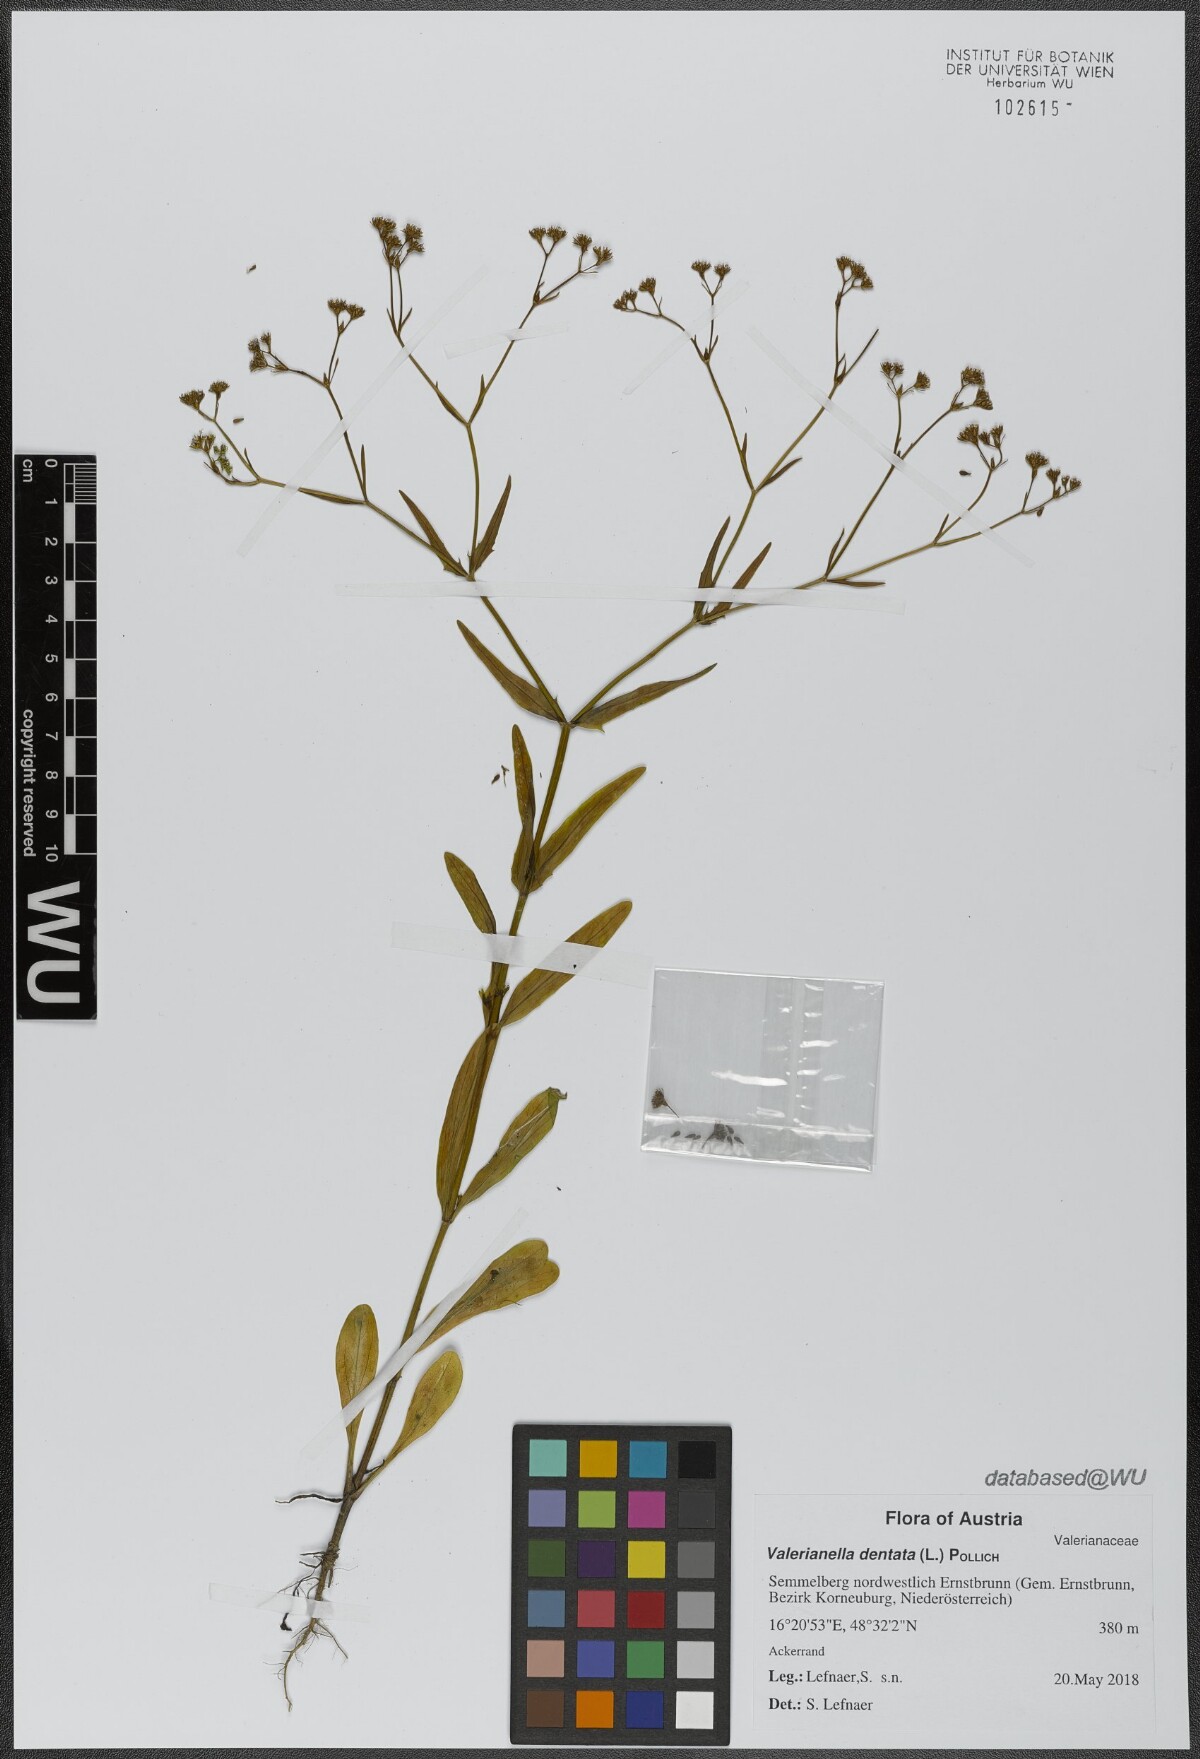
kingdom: Plantae
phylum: Tracheophyta
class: Magnoliopsida
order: Dipsacales
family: Caprifoliaceae
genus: Valerianella
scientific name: Valerianella dentata
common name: Narrow-fruited cornsalad
